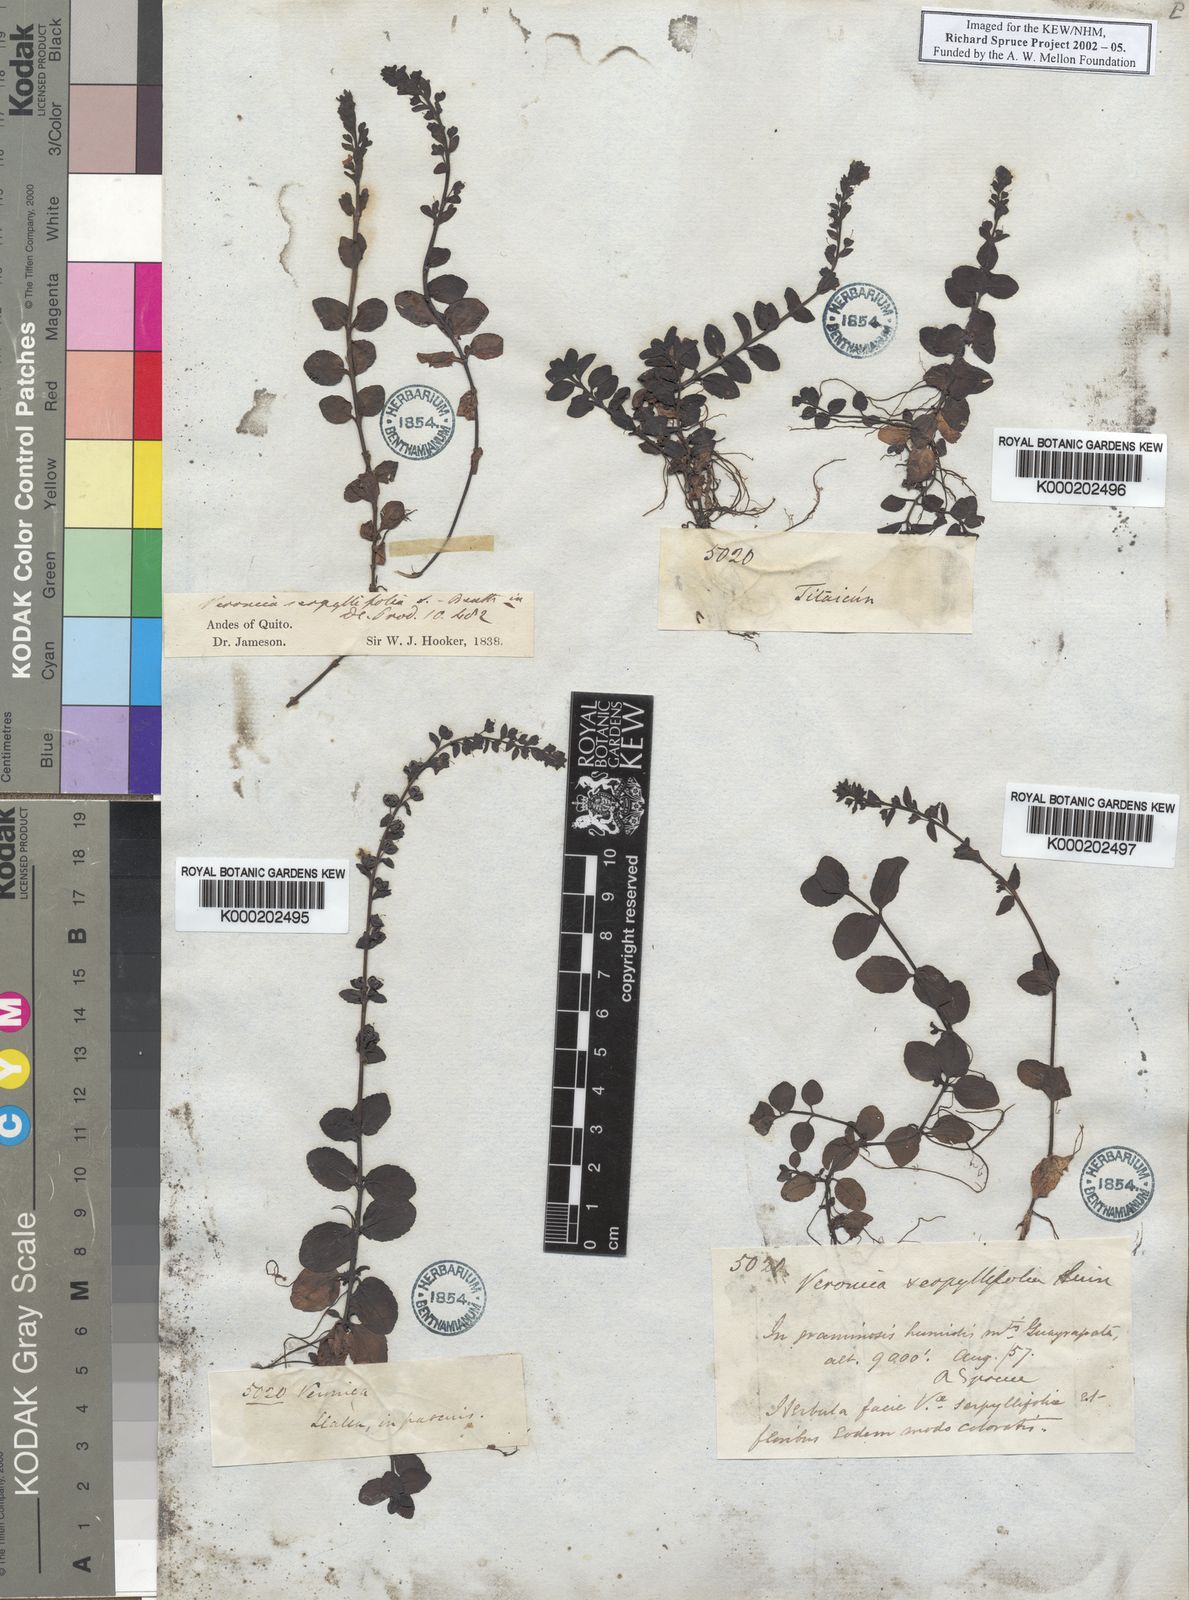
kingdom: Plantae
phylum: Tracheophyta
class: Magnoliopsida
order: Lamiales
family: Plantaginaceae
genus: Veronica
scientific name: Veronica serpyllifolia
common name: Thyme-leaved speedwell
